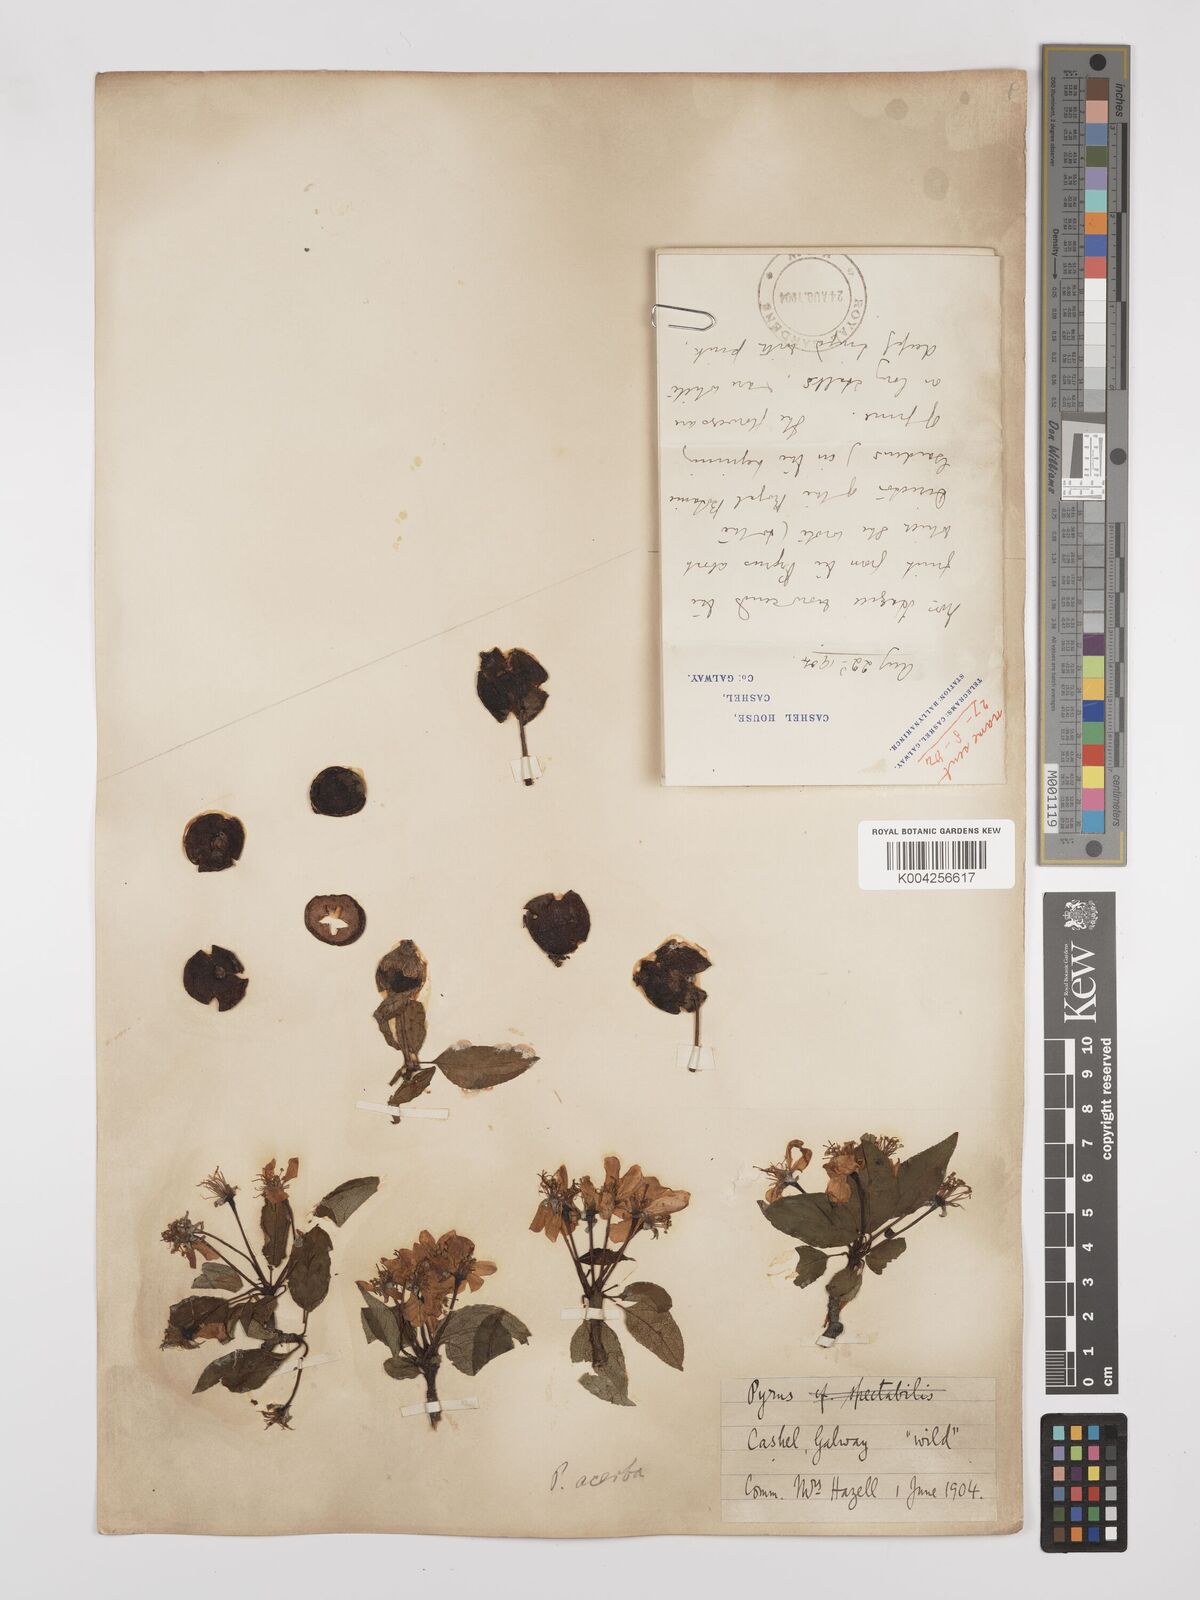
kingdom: Plantae
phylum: Tracheophyta
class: Magnoliopsida
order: Rosales
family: Rosaceae
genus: Malus
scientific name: Malus sylvestris
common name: Crab apple
